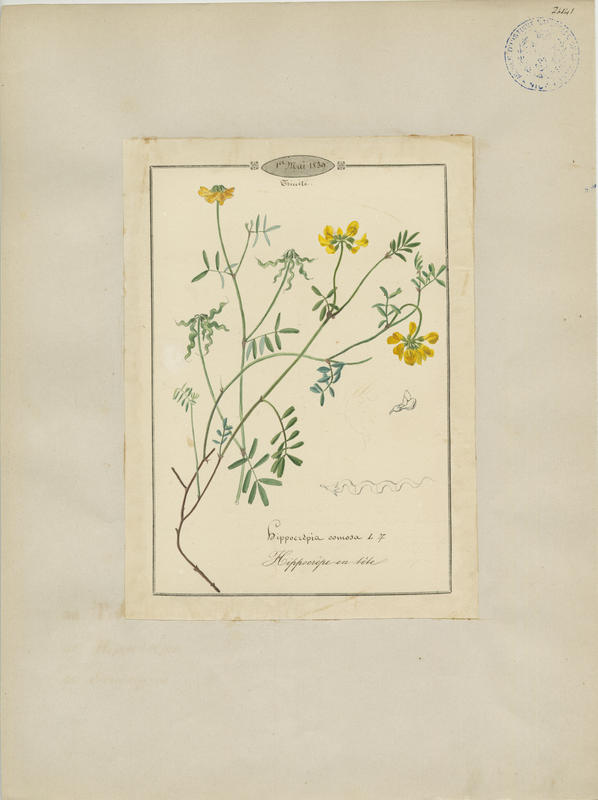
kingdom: Plantae
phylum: Tracheophyta
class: Magnoliopsida
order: Fabales
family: Fabaceae
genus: Hippocrepis
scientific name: Hippocrepis comosa
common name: Horseshoe vetch
